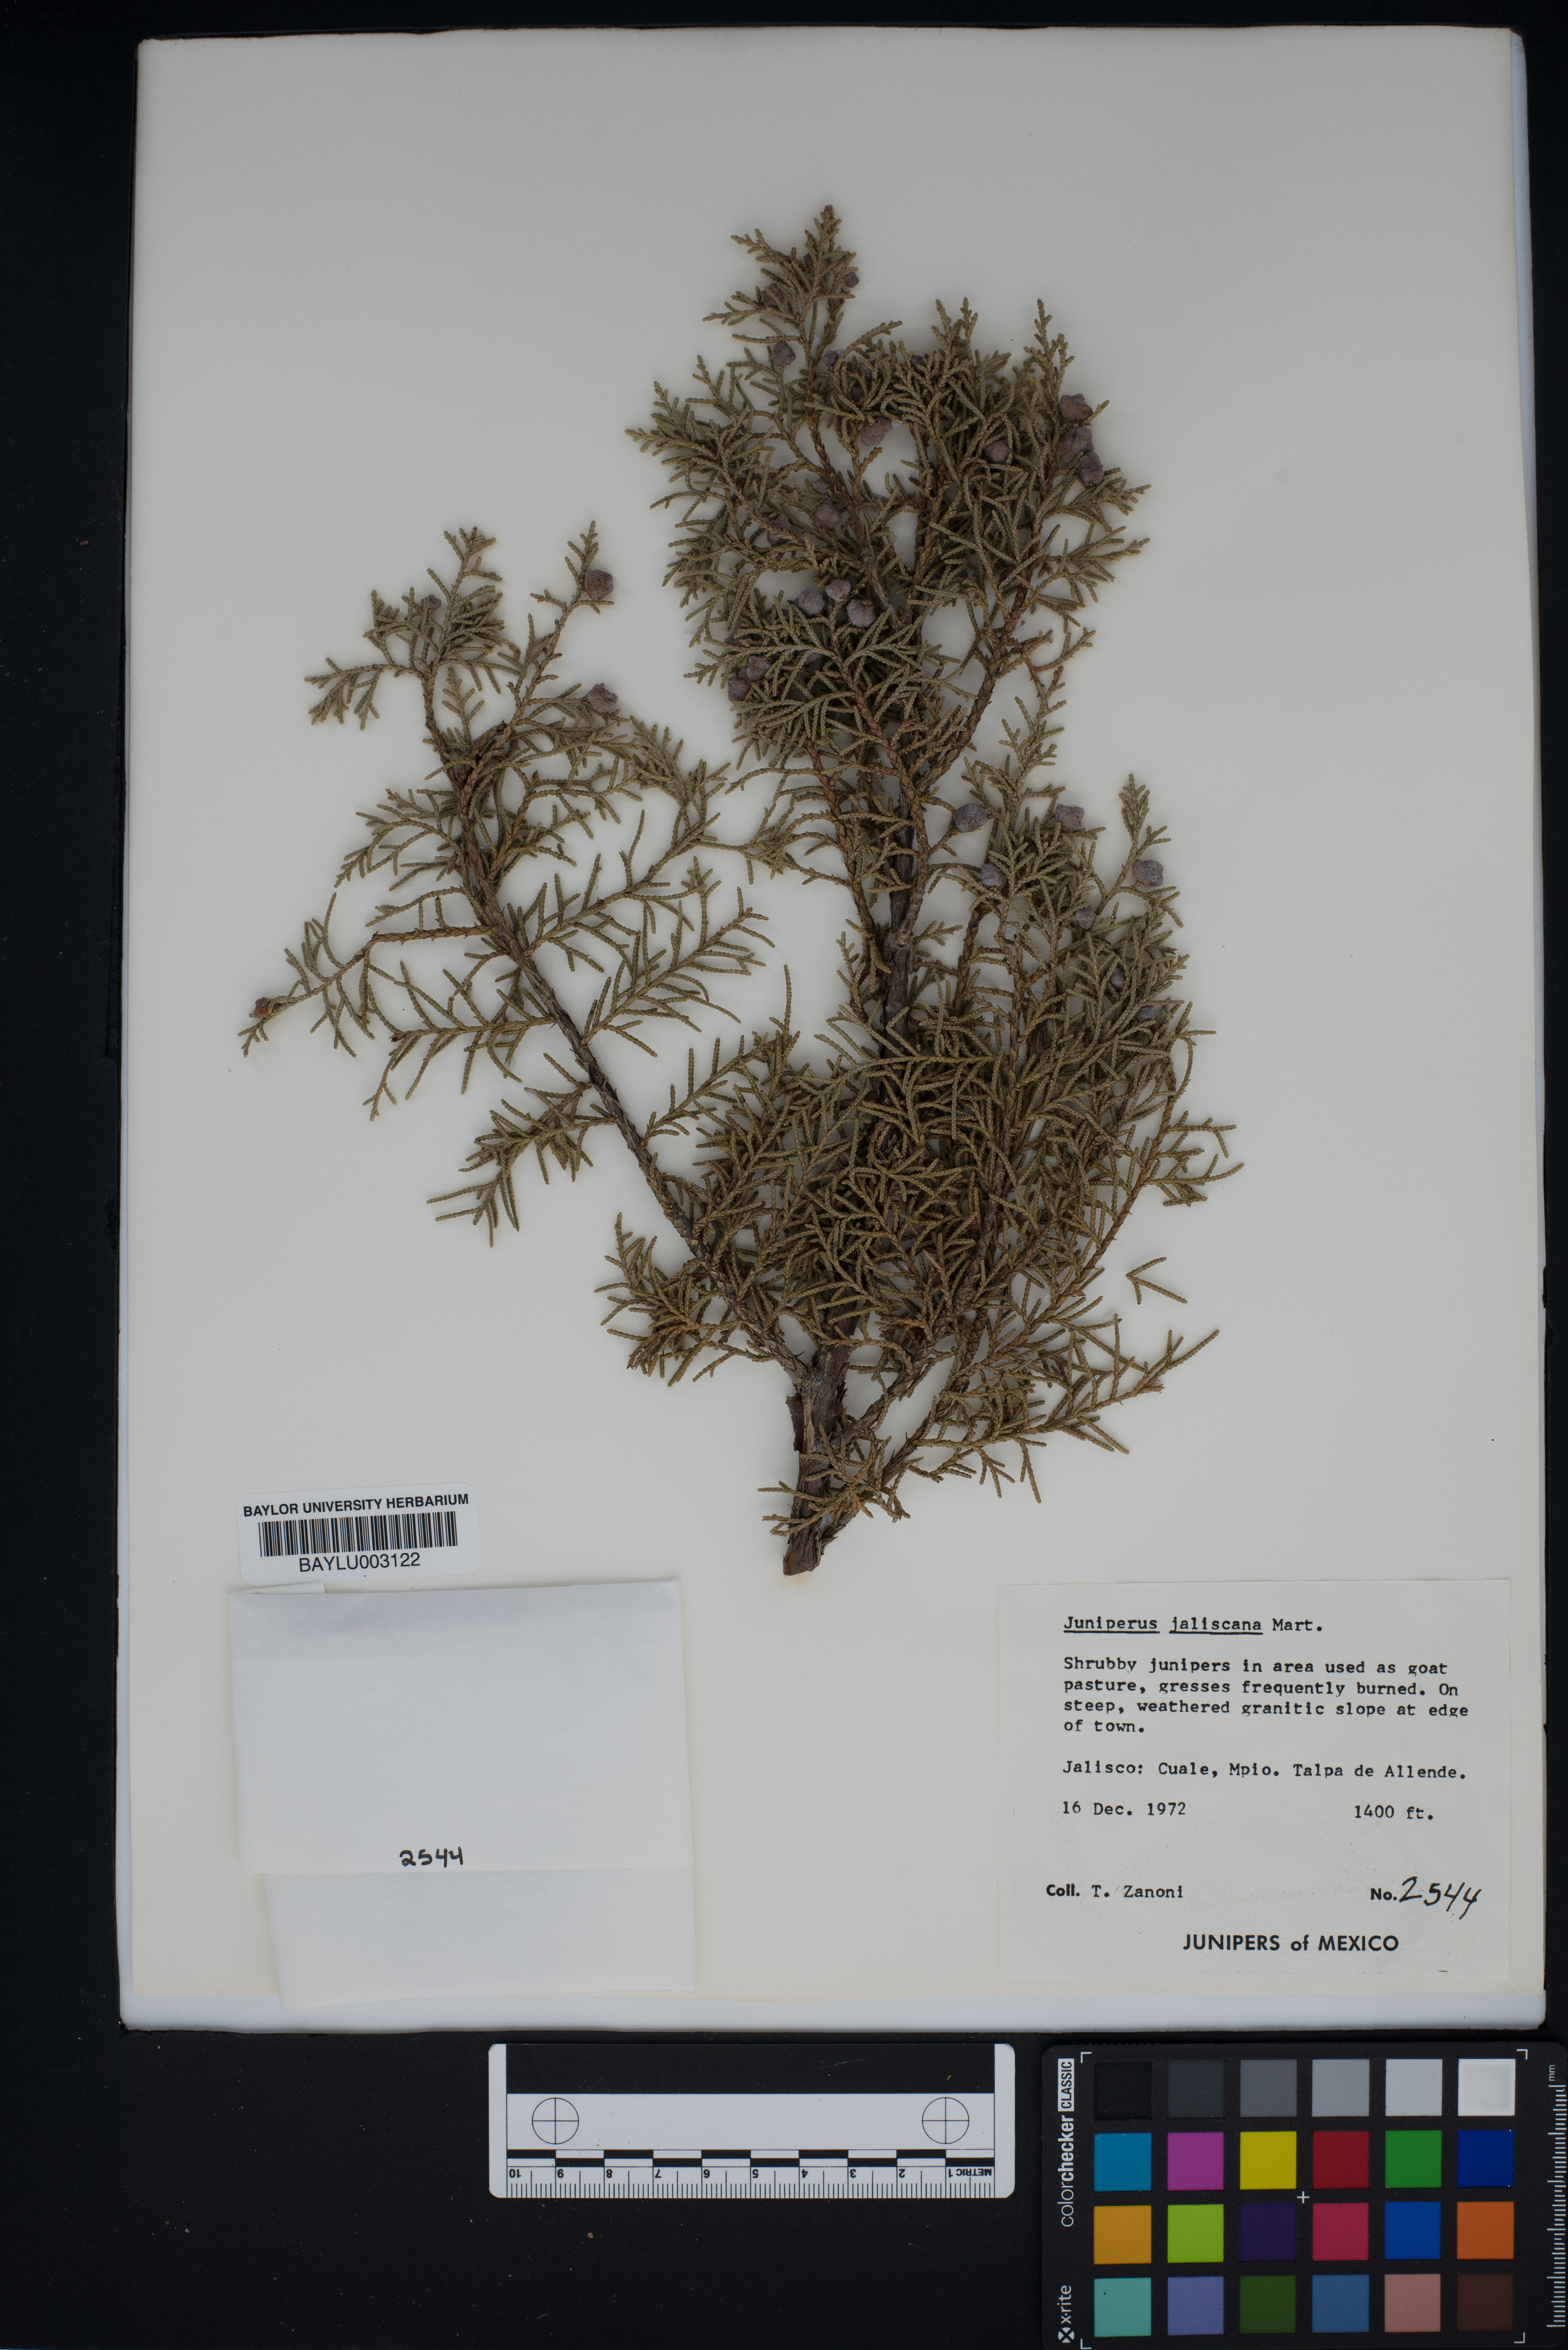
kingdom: Plantae
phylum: Tracheophyta
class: Pinopsida
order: Pinales
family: Cupressaceae
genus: Juniperus
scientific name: Juniperus jaliscana
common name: Jalisco juniper
